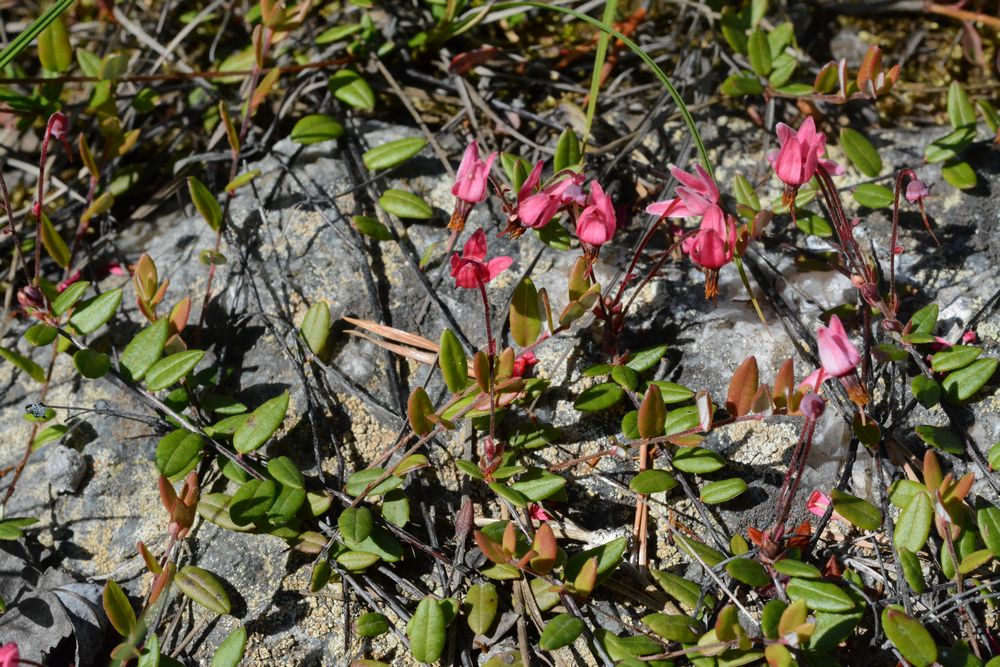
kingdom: Plantae
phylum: Tracheophyta
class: Magnoliopsida
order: Ericales
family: Ericaceae
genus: Vaccinium
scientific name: Vaccinium oxycoccos
